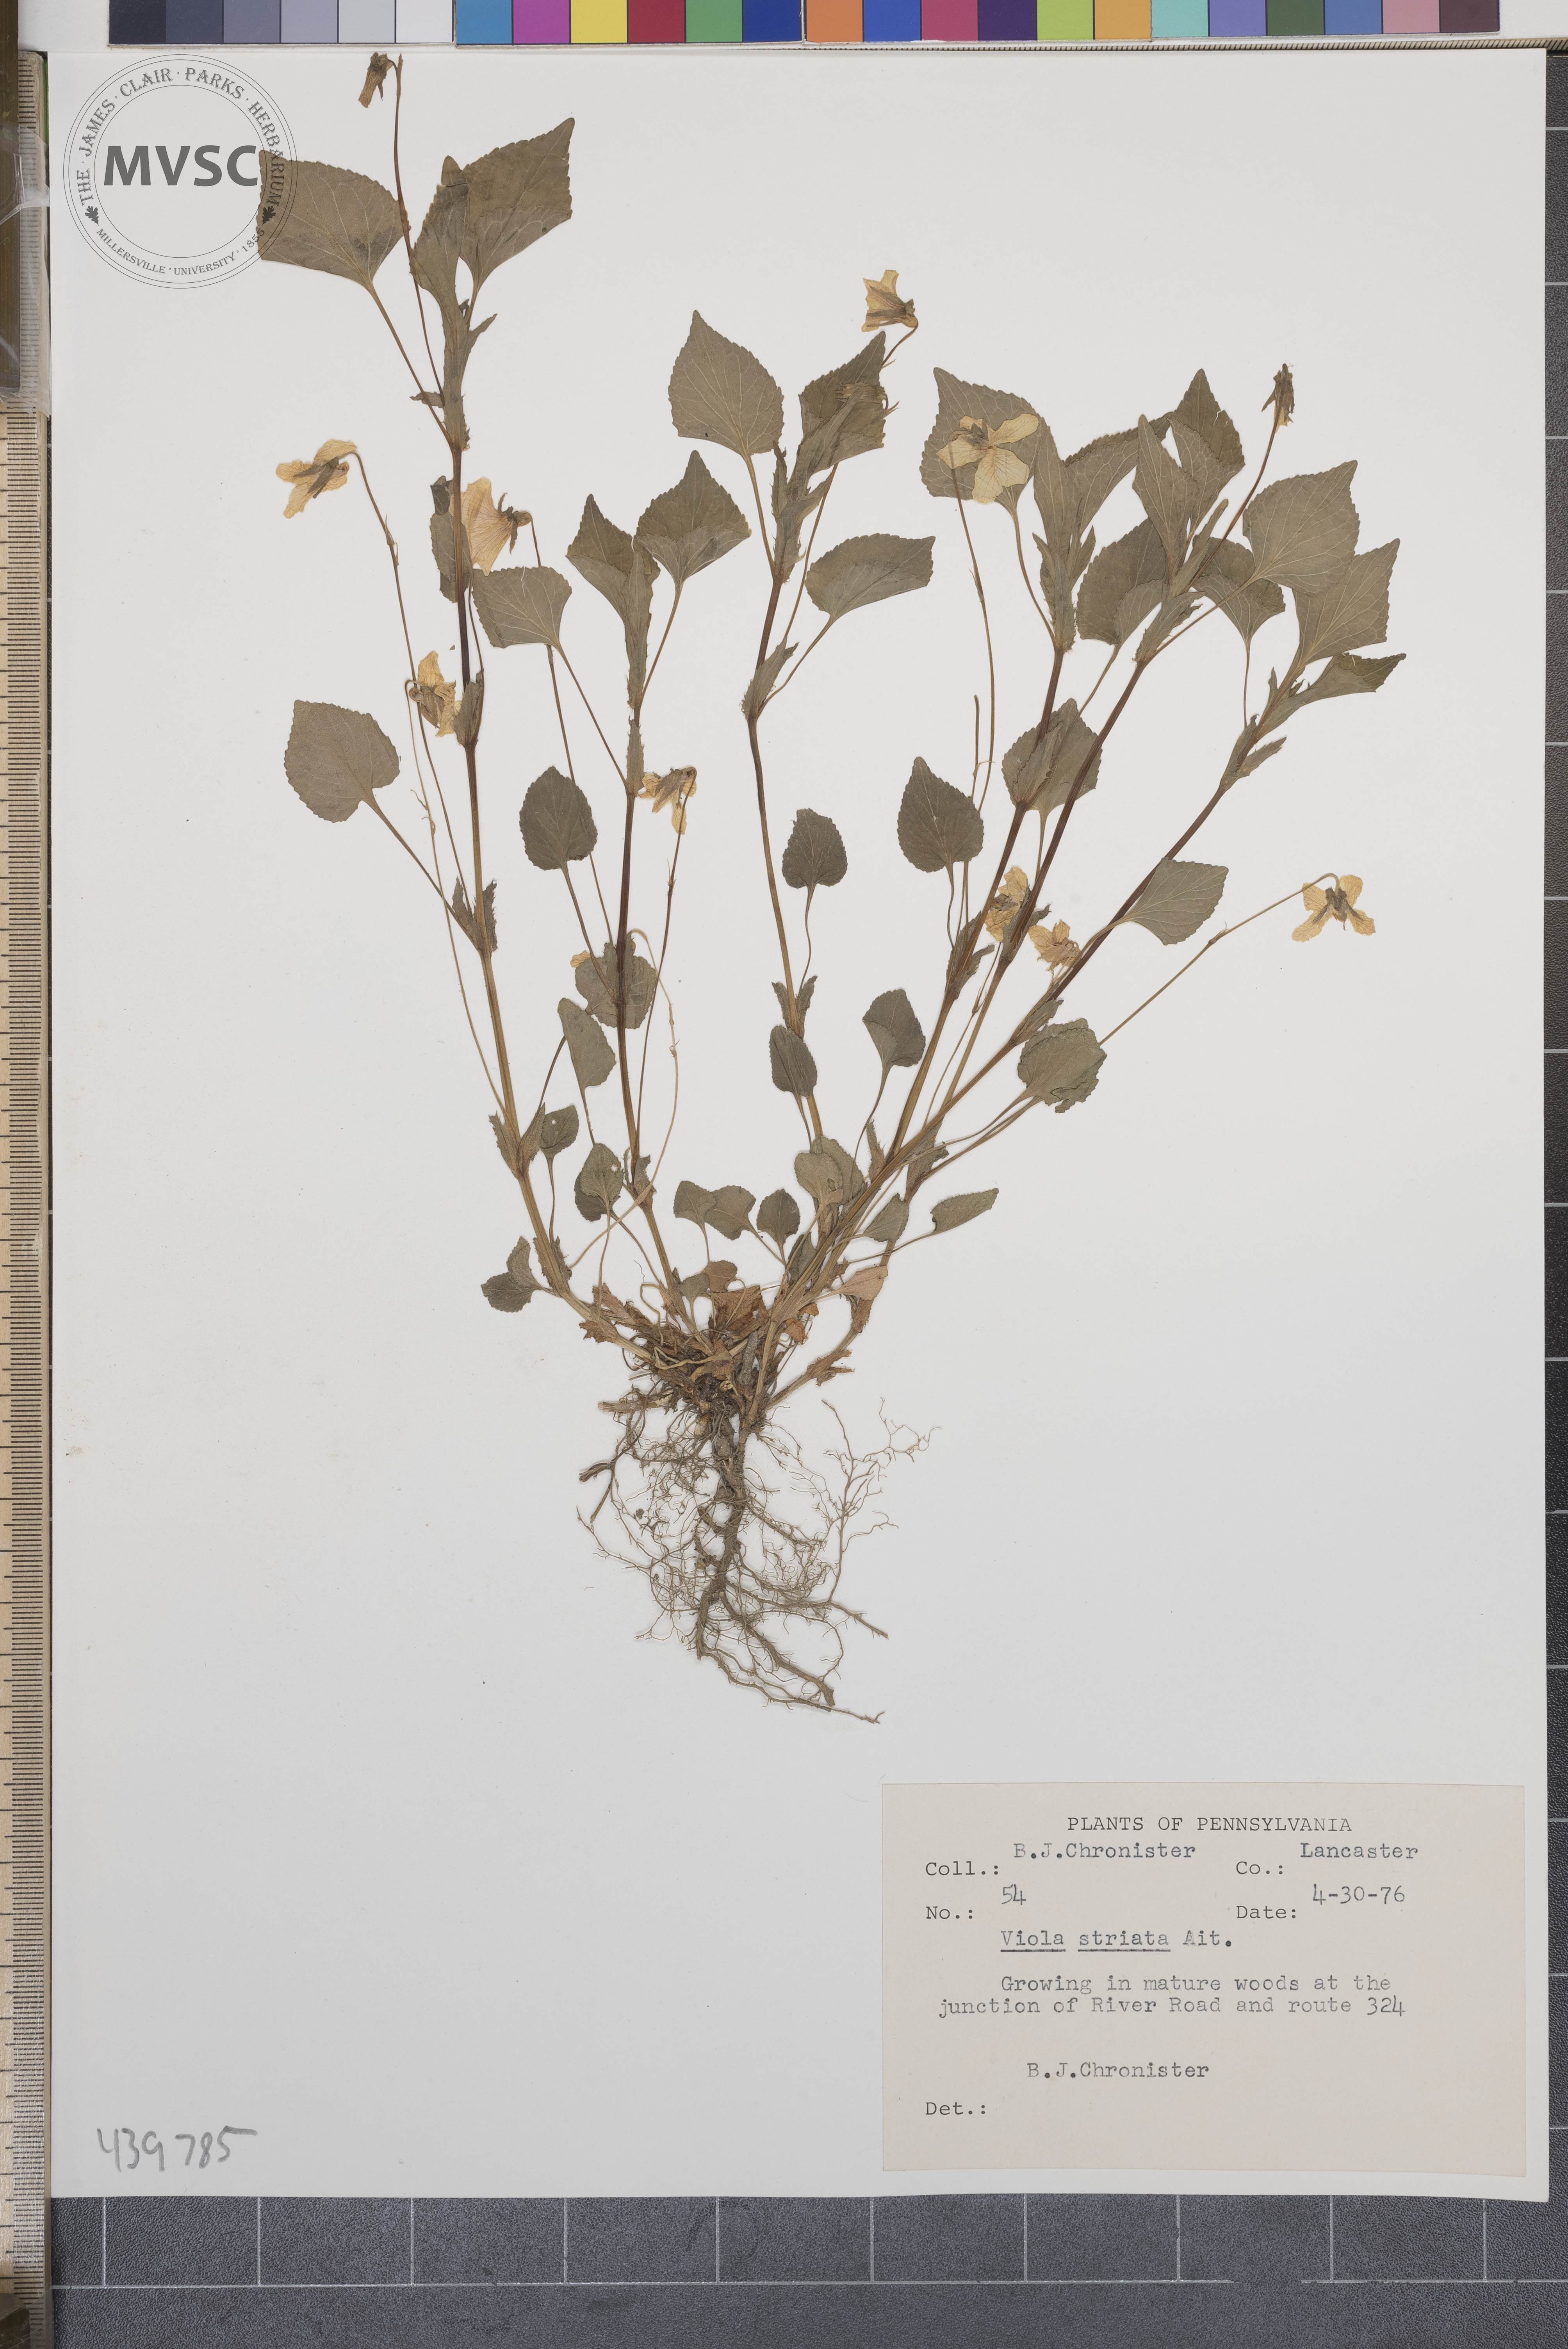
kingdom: Plantae
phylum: Tracheophyta
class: Magnoliopsida
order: Malpighiales
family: Violaceae
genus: Viola
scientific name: Viola striata
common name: Cream violet
